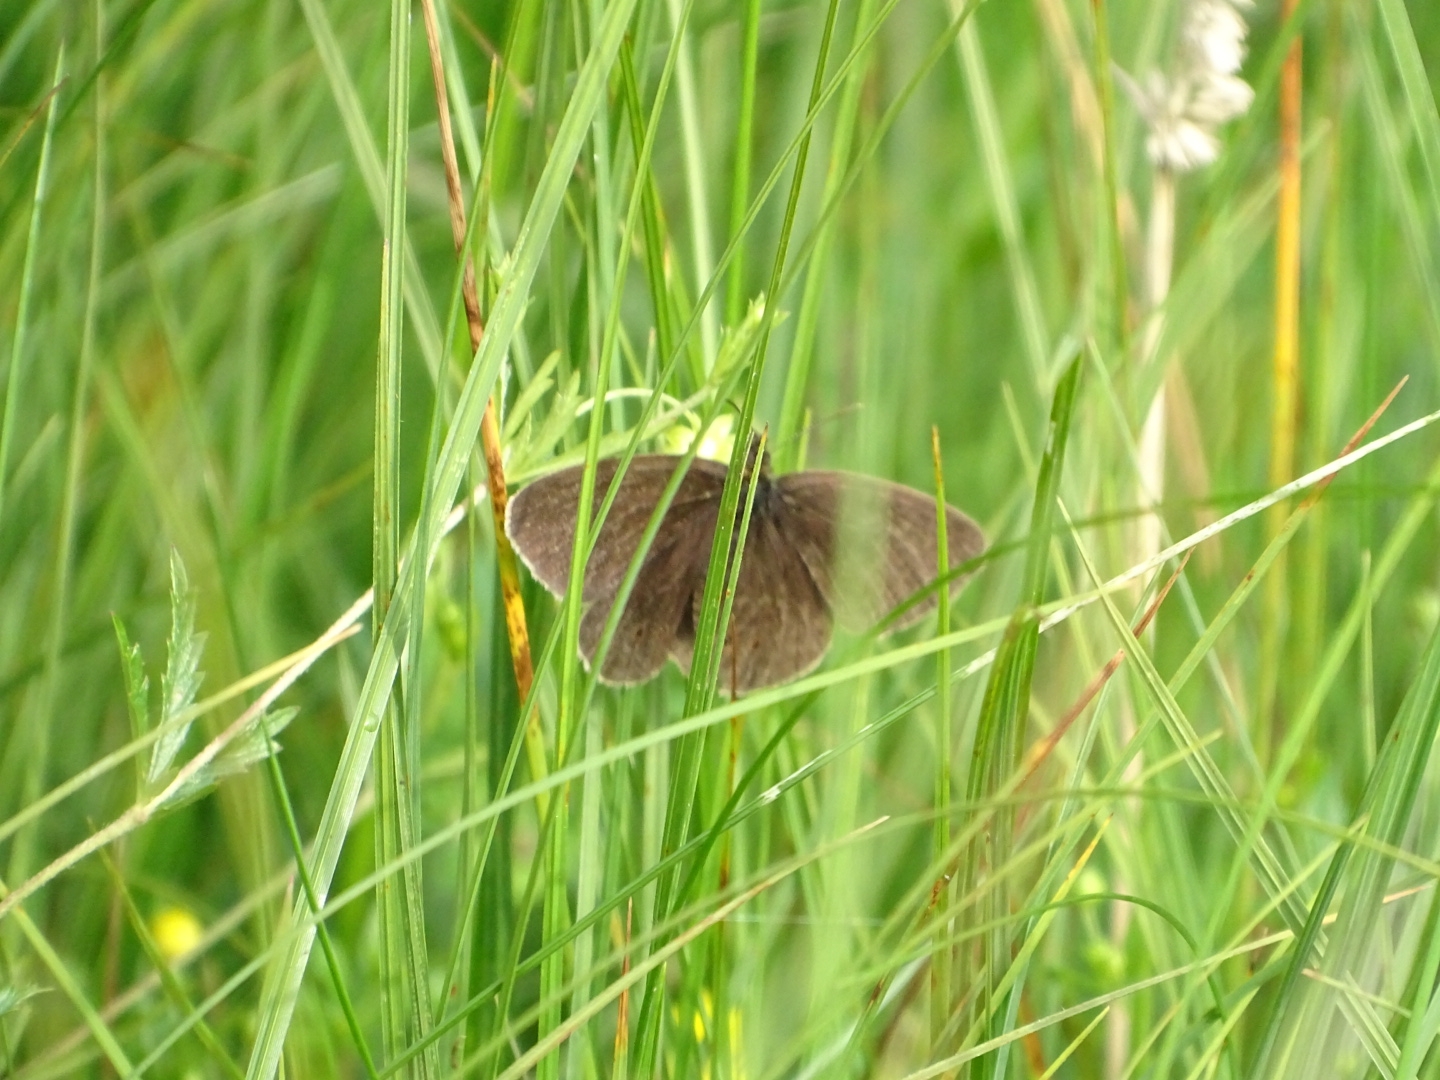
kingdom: Animalia
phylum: Arthropoda
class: Insecta
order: Lepidoptera
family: Nymphalidae
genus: Aphantopus
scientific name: Aphantopus hyperantus
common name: Engrandøje
